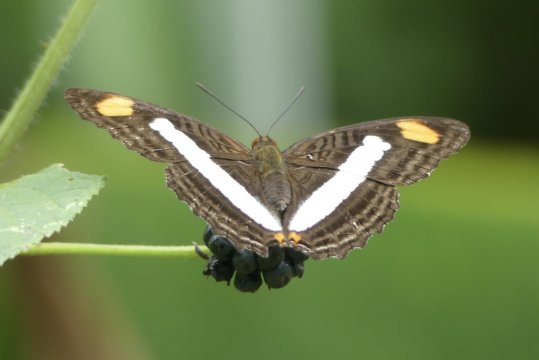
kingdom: Animalia
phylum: Arthropoda
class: Insecta
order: Lepidoptera
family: Nymphalidae
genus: Limenitis
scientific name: Limenitis Adelpha basiloides
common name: Spot-celled Sister
